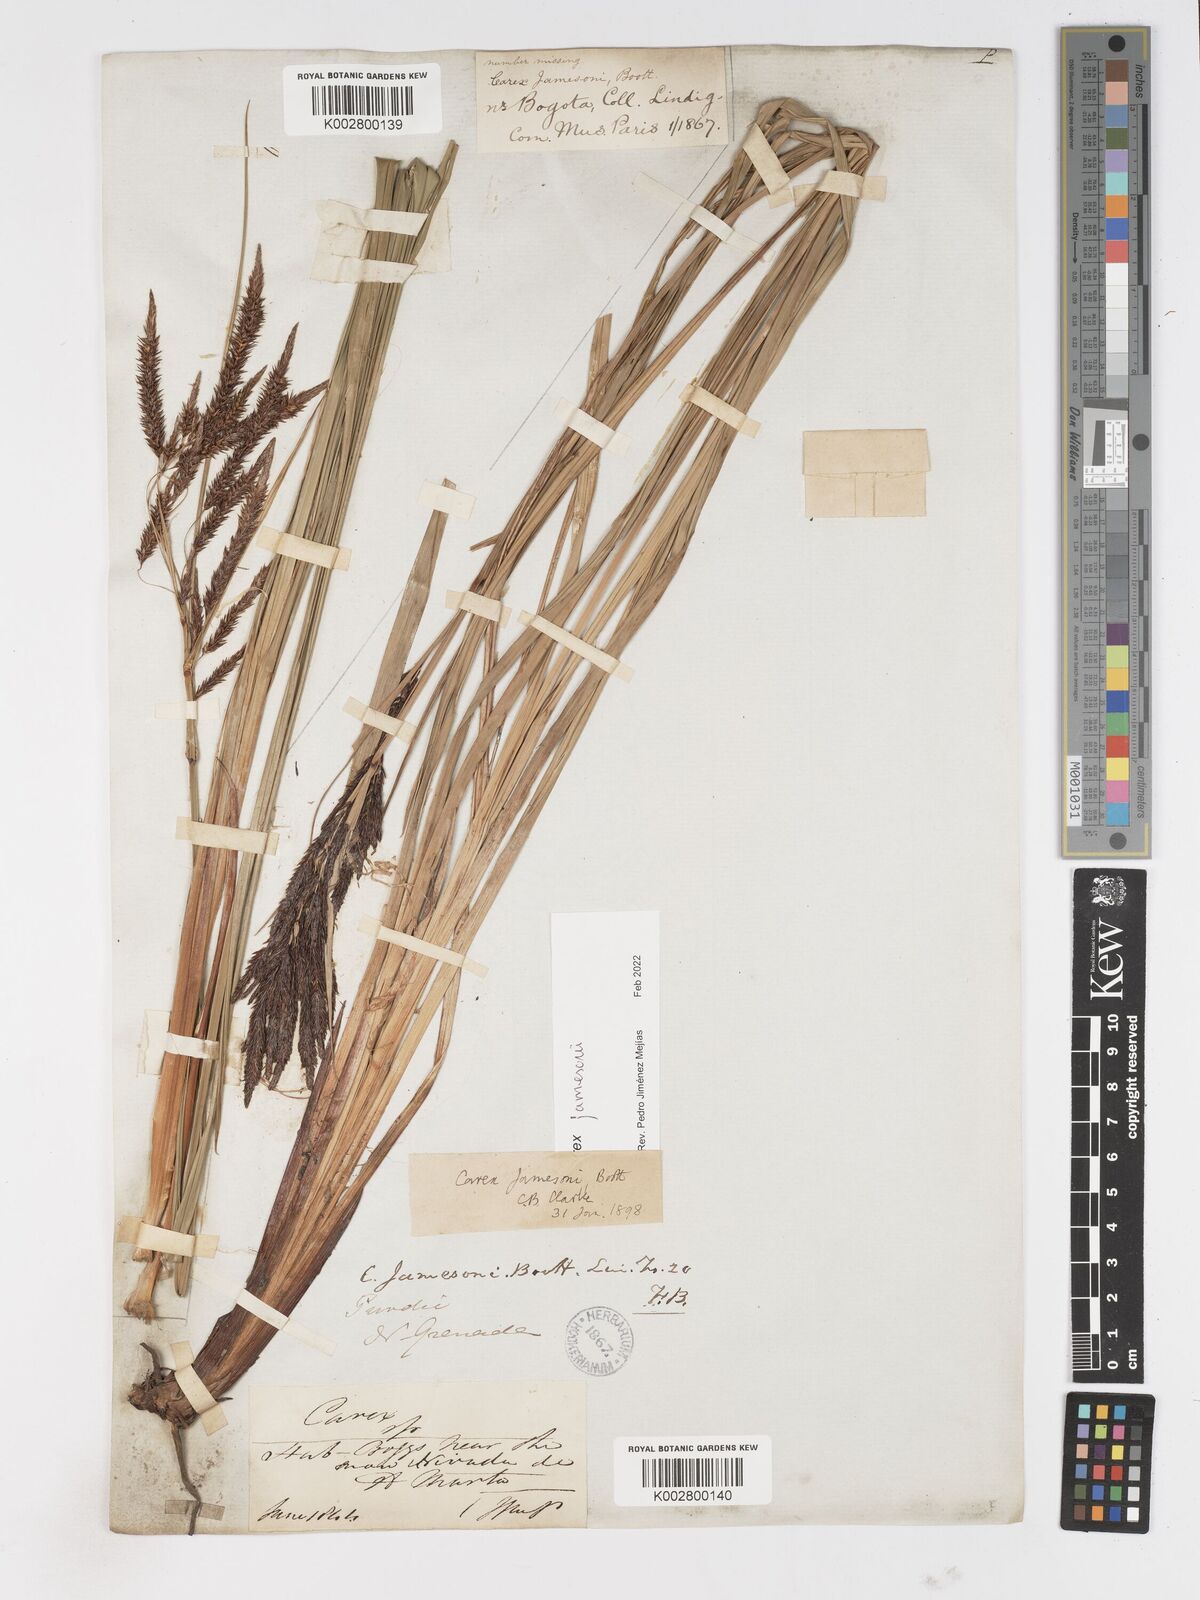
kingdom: Plantae
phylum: Tracheophyta
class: Liliopsida
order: Poales
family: Cyperaceae
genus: Carex
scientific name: Carex jamesonii
